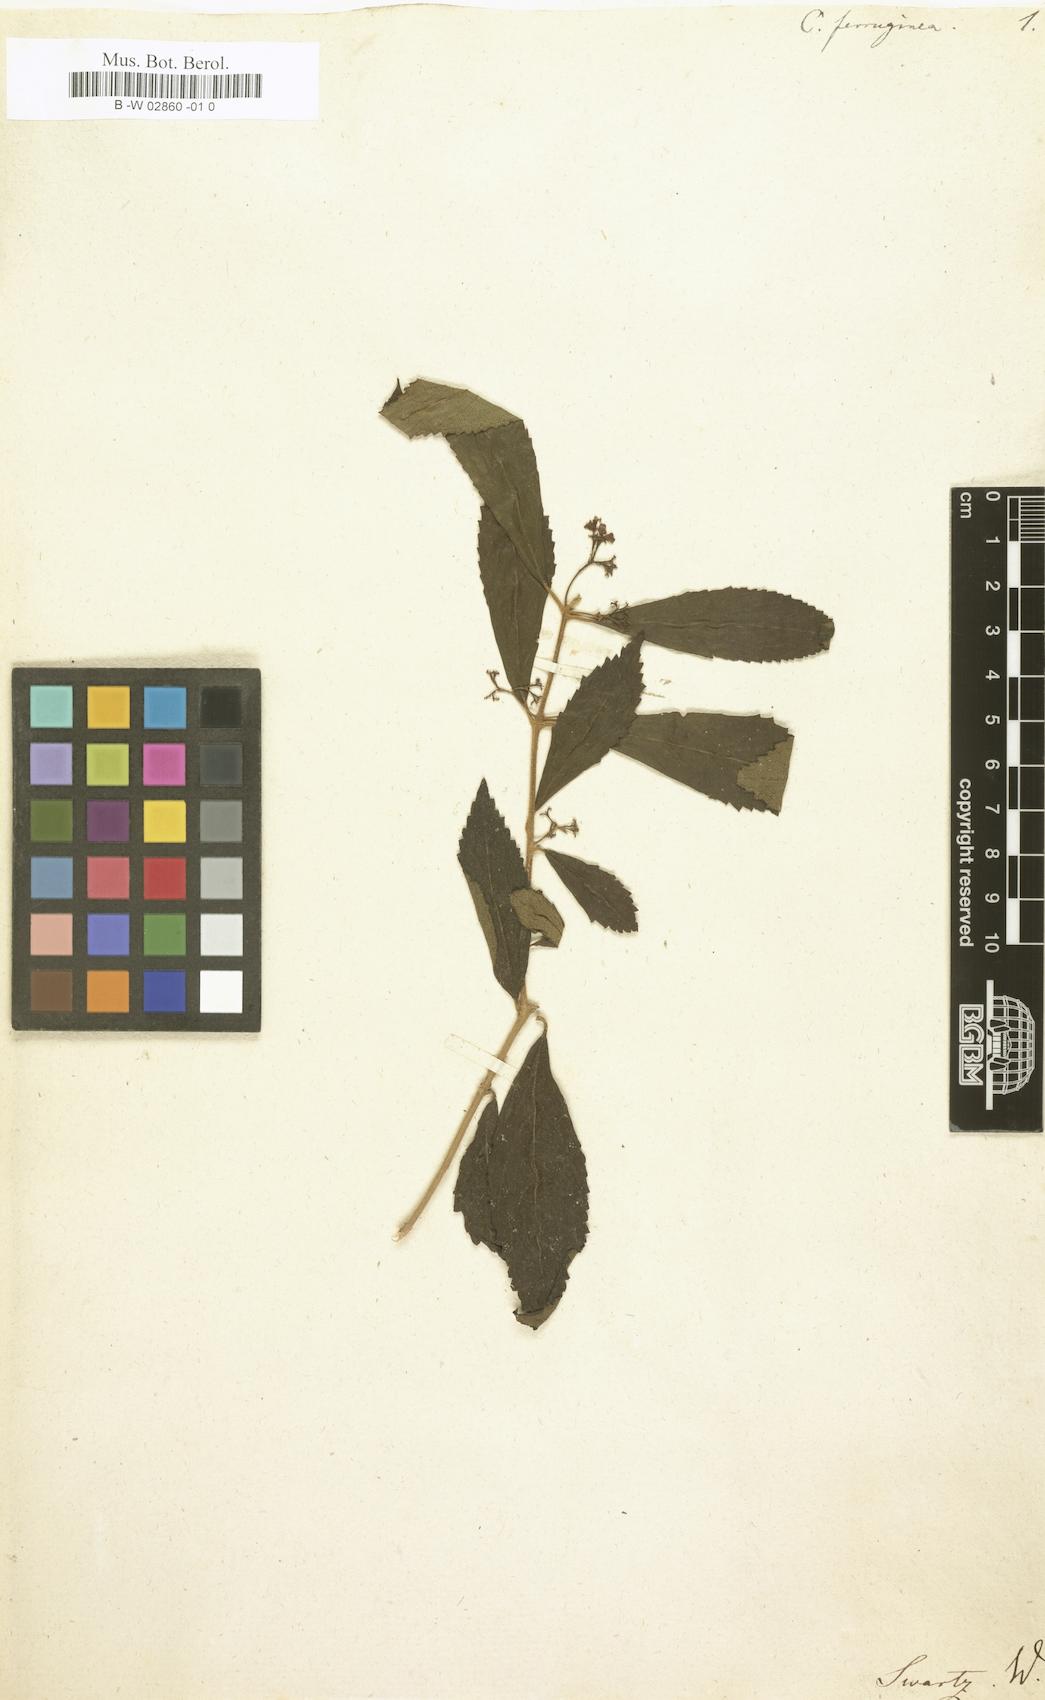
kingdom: Plantae
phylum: Tracheophyta
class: Magnoliopsida
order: Lamiales
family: Lamiaceae
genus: Callicarpa
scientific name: Callicarpa ferruginea
